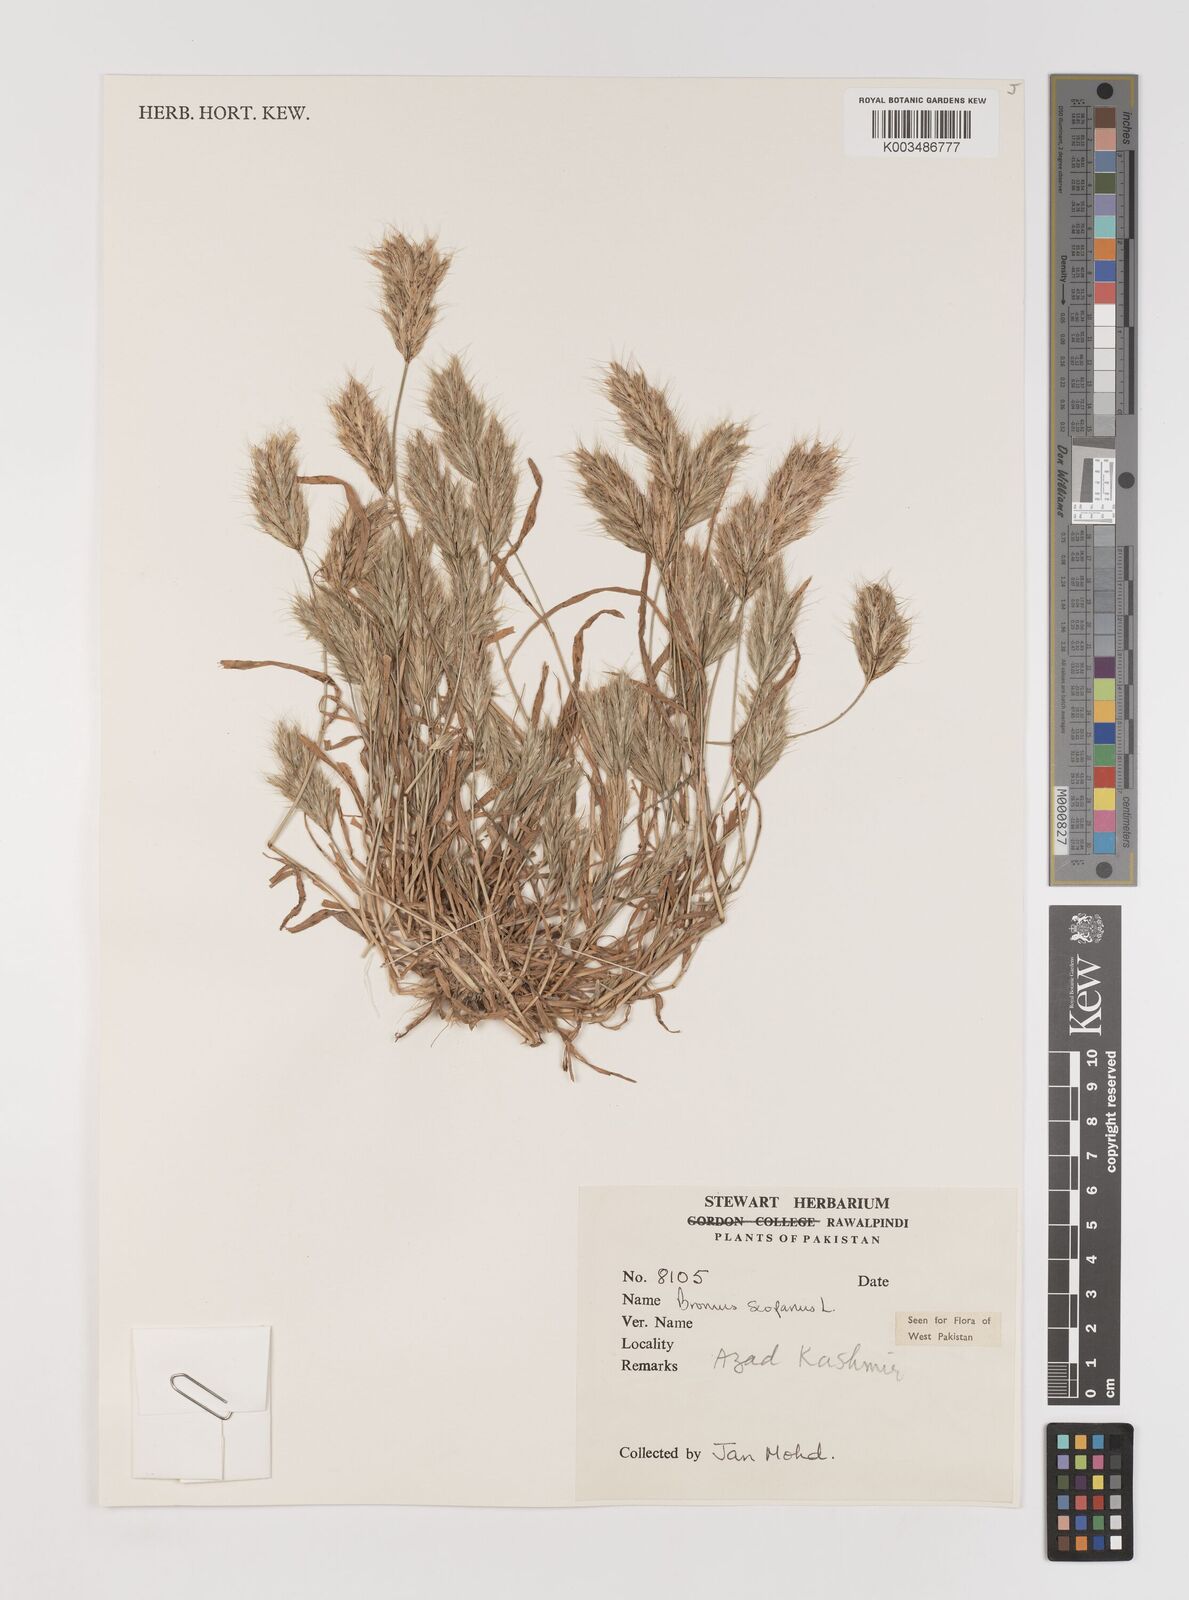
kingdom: Plantae
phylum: Tracheophyta
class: Liliopsida
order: Poales
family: Poaceae
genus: Bromus
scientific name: Bromus scoparius
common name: Broom brome
